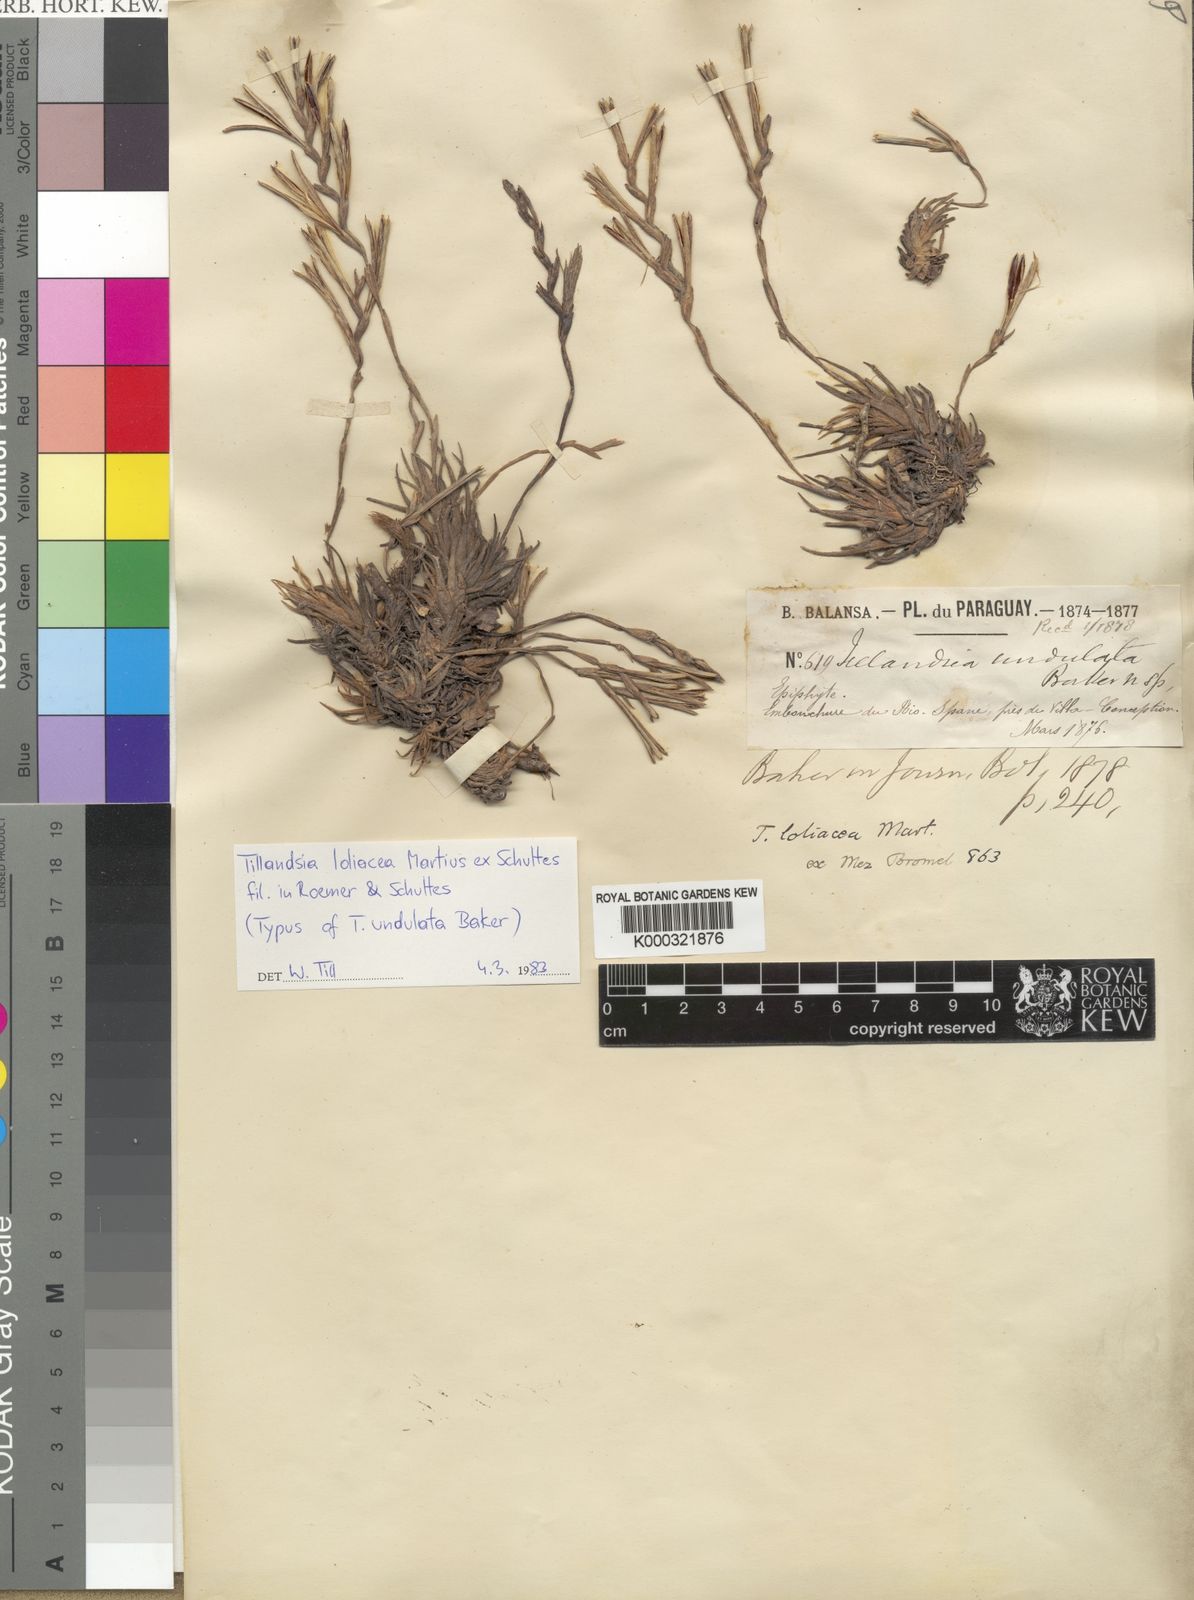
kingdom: Plantae
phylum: Tracheophyta
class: Liliopsida
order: Poales
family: Bromeliaceae
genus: Tillandsia
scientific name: Tillandsia loliacea
